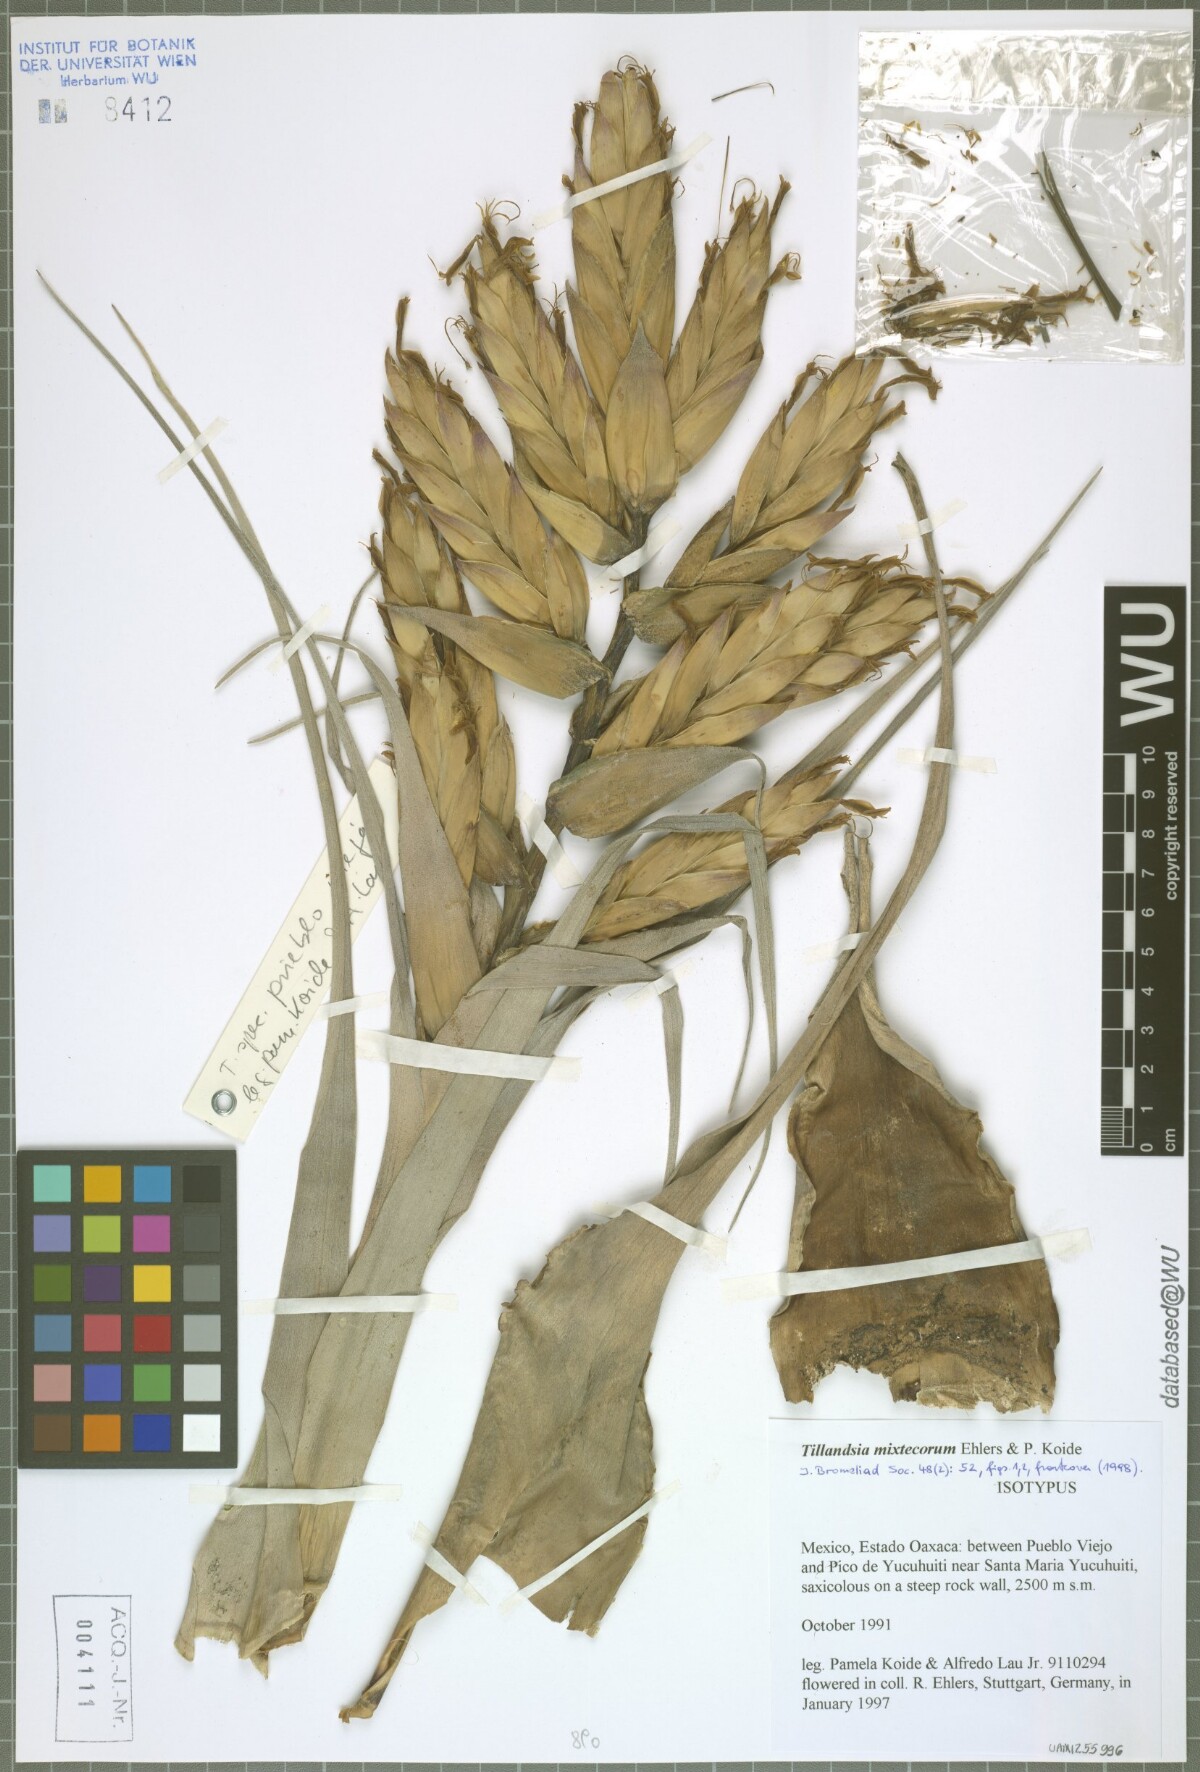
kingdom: Plantae
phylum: Tracheophyta
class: Liliopsida
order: Poales
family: Bromeliaceae
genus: Tillandsia
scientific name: Tillandsia mixtecorum
